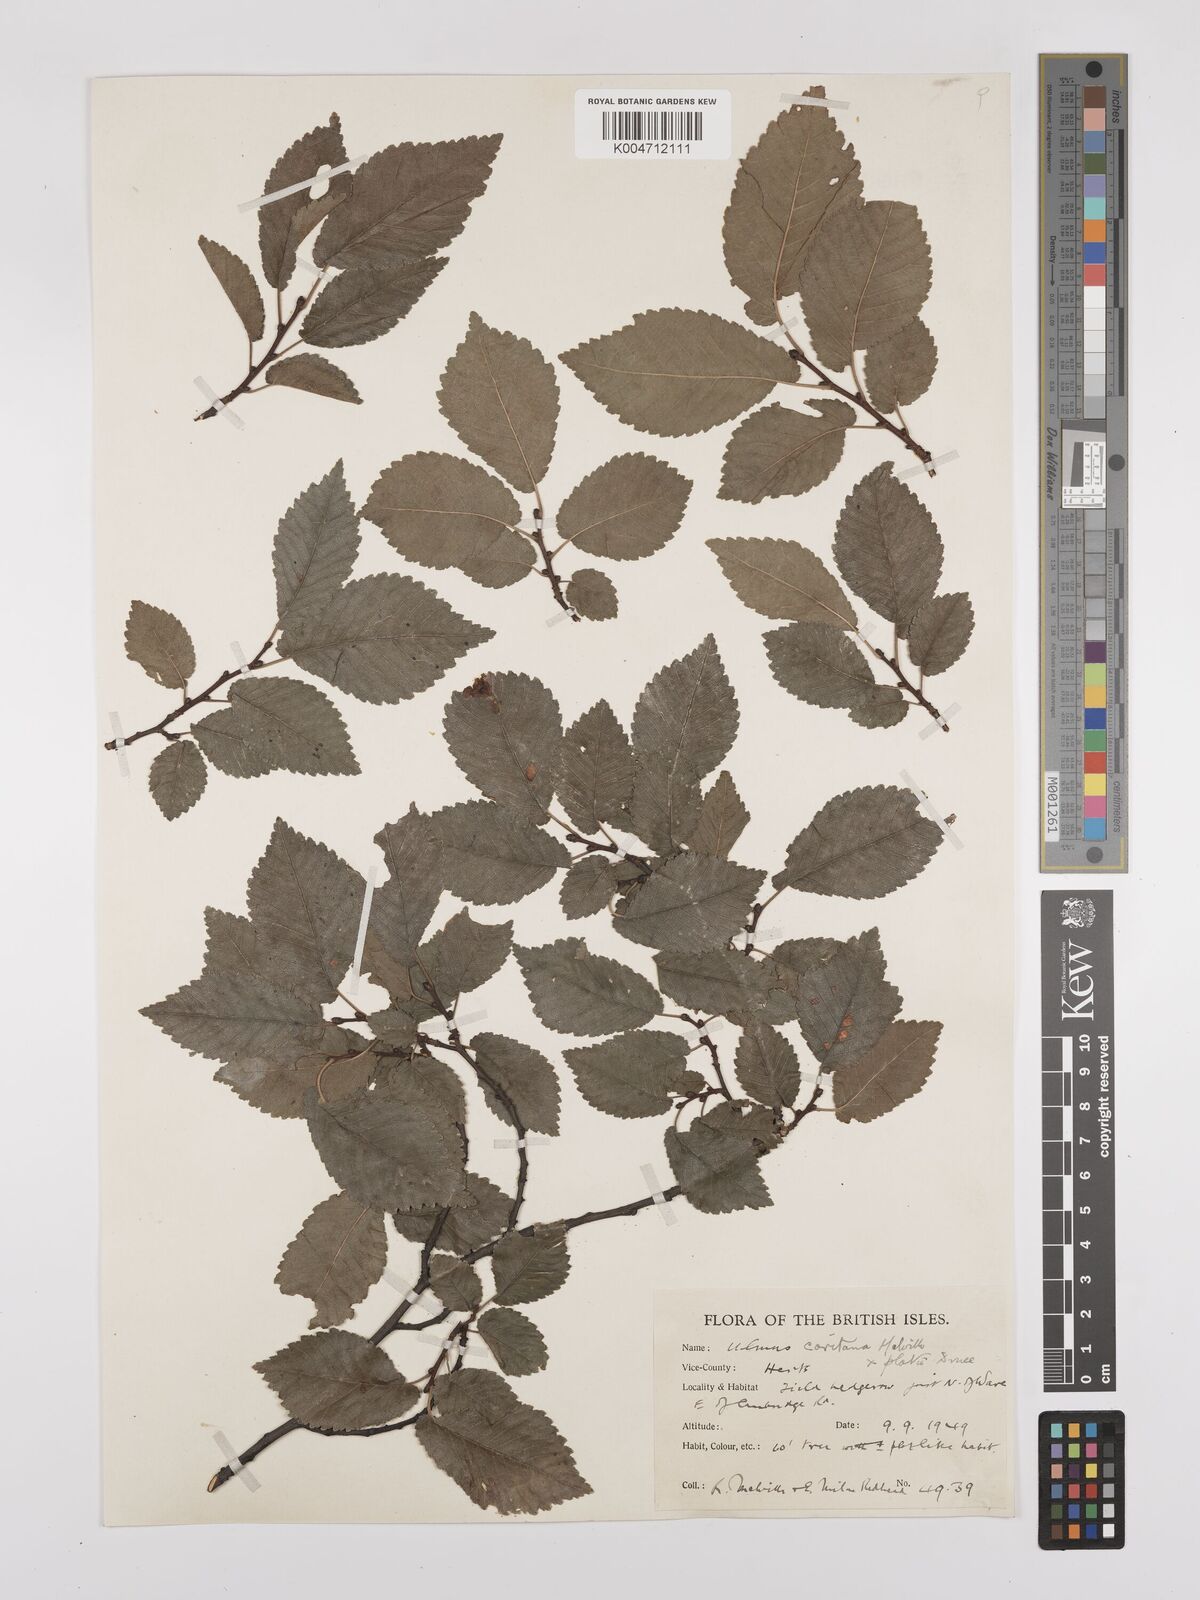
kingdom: Plantae
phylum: Tracheophyta
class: Magnoliopsida
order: Rosales
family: Ulmaceae
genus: Ulmus
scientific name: Ulmus minor
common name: Small-leaved elm
